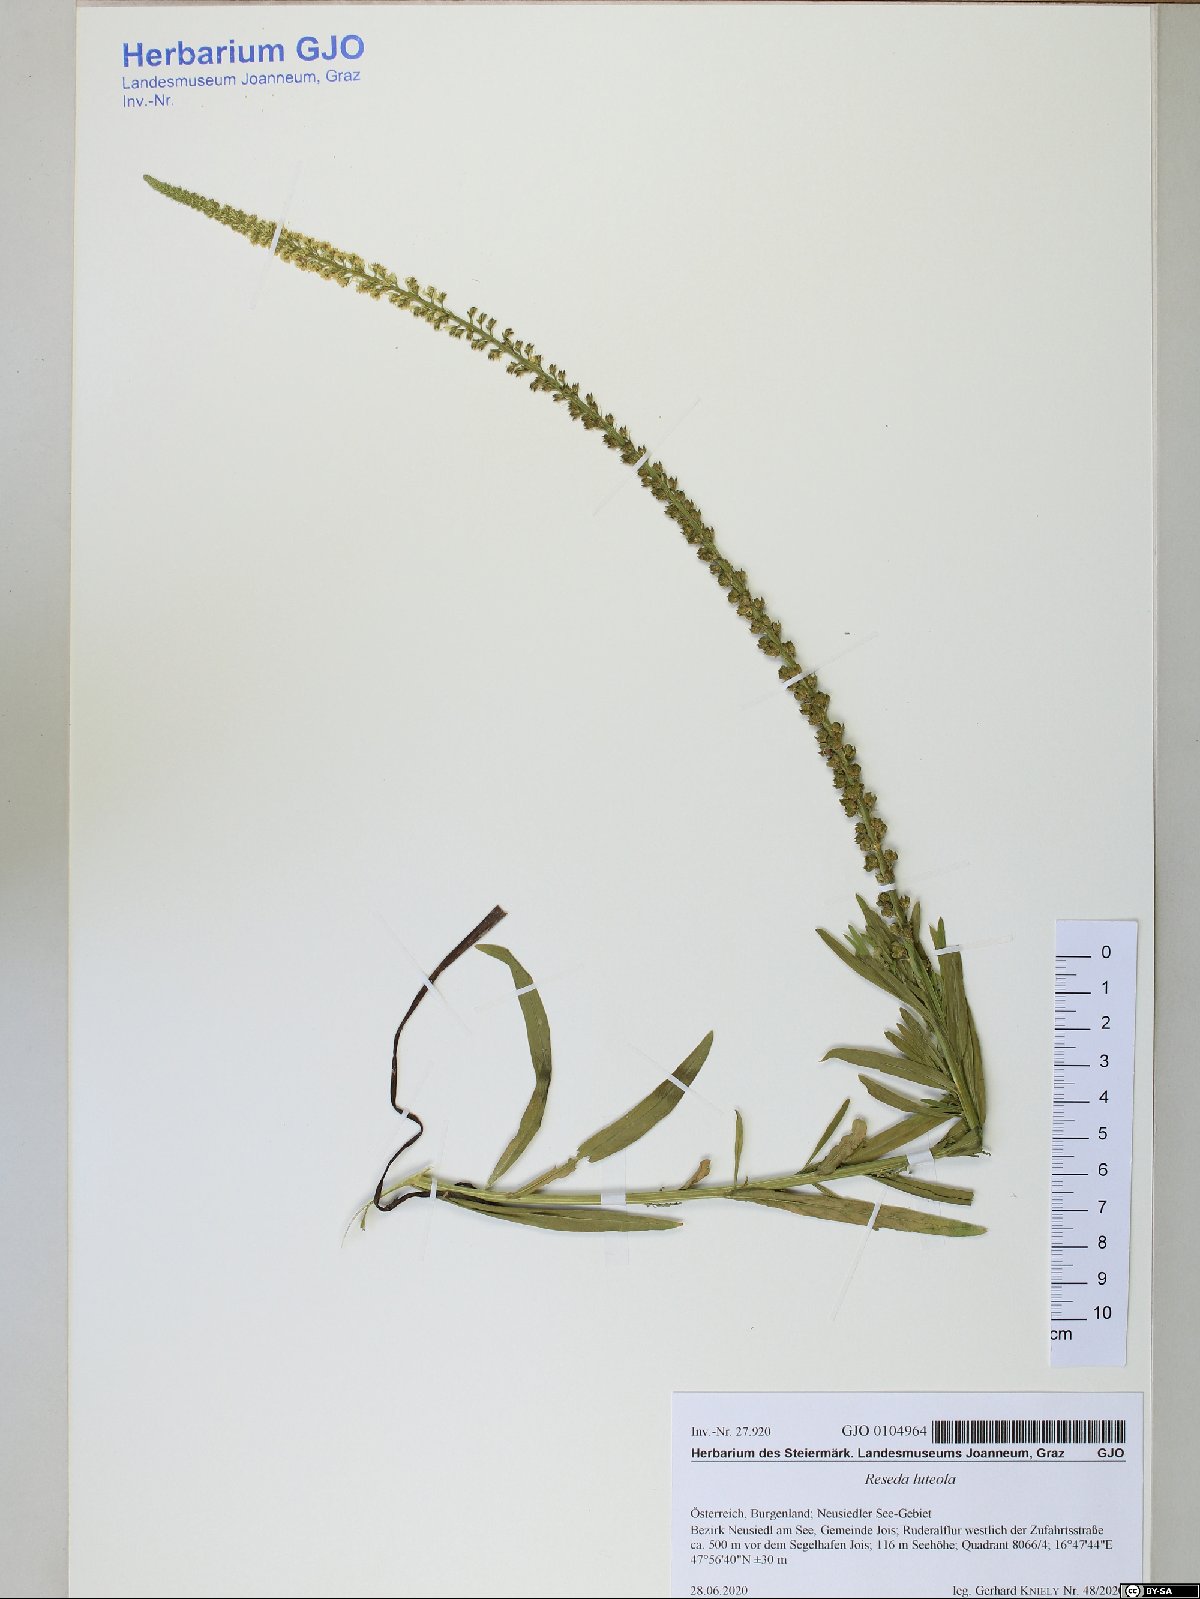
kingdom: Plantae
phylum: Tracheophyta
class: Magnoliopsida
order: Brassicales
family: Resedaceae
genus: Reseda
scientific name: Reseda luteola
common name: Weld
